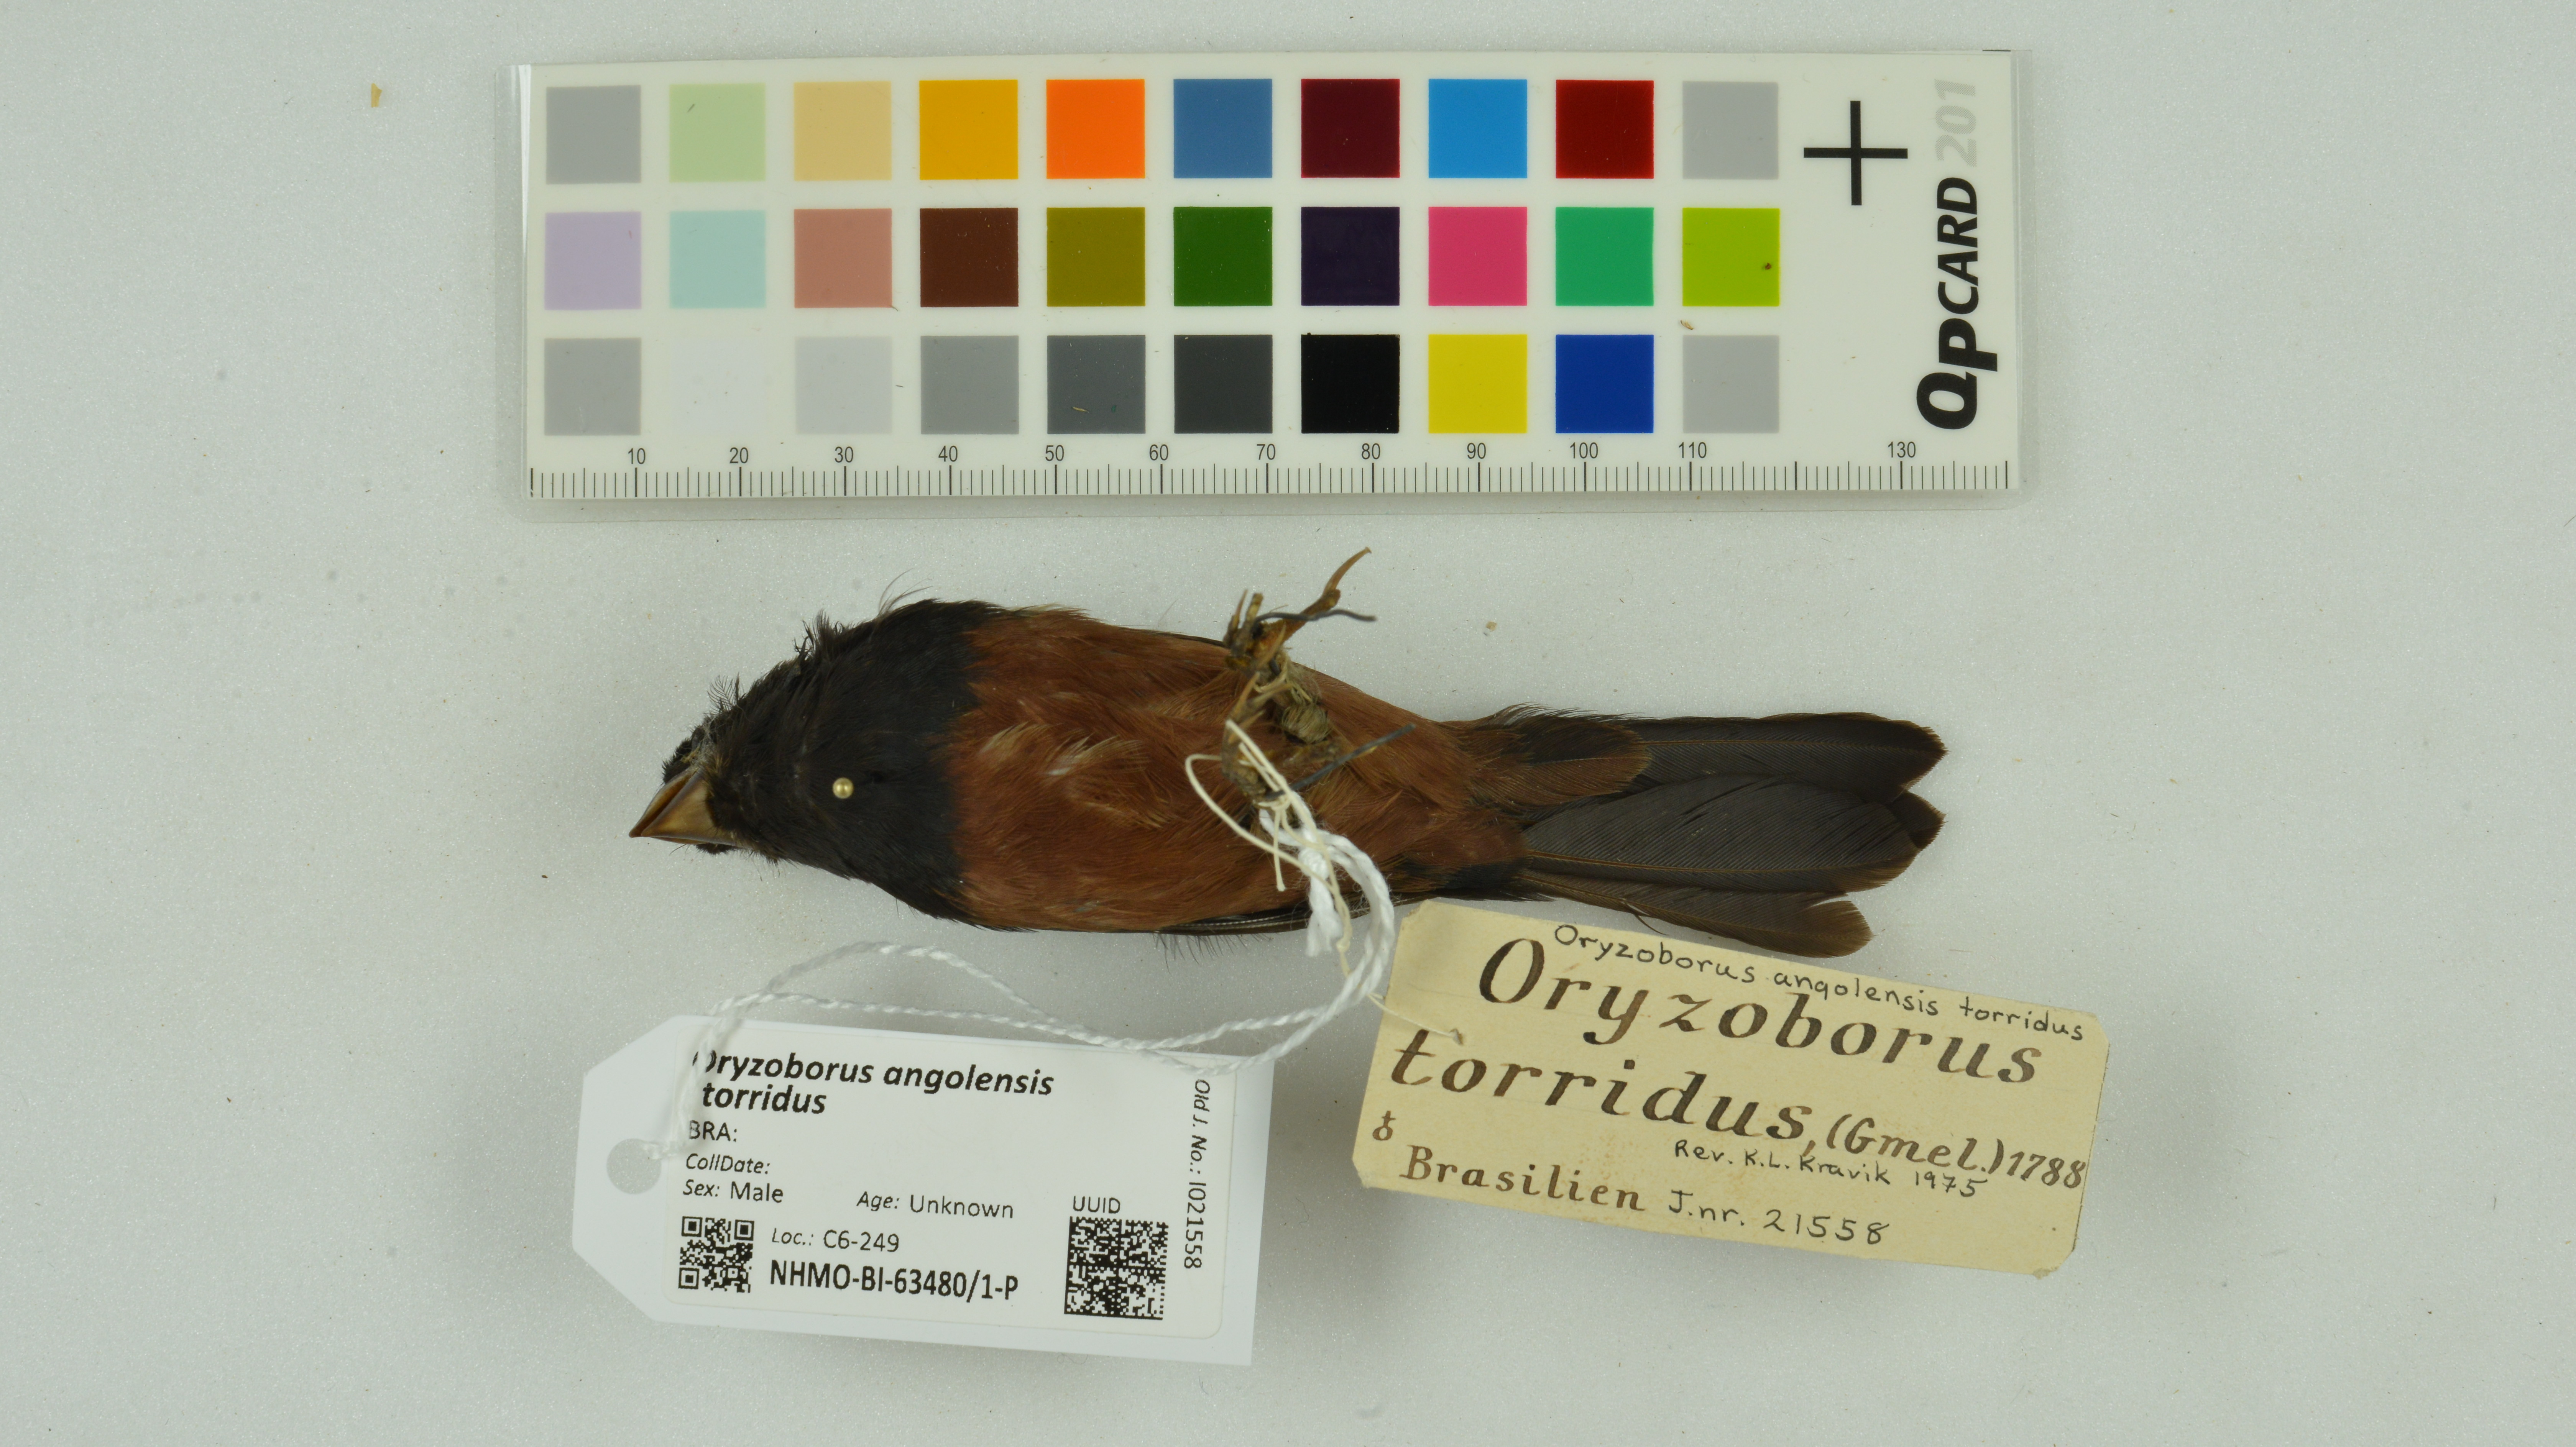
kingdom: Animalia
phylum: Chordata
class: Aves
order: Passeriformes
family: Thraupidae
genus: Sporophila
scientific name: Sporophila angolensis
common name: Chestnut-bellied seed-finch
